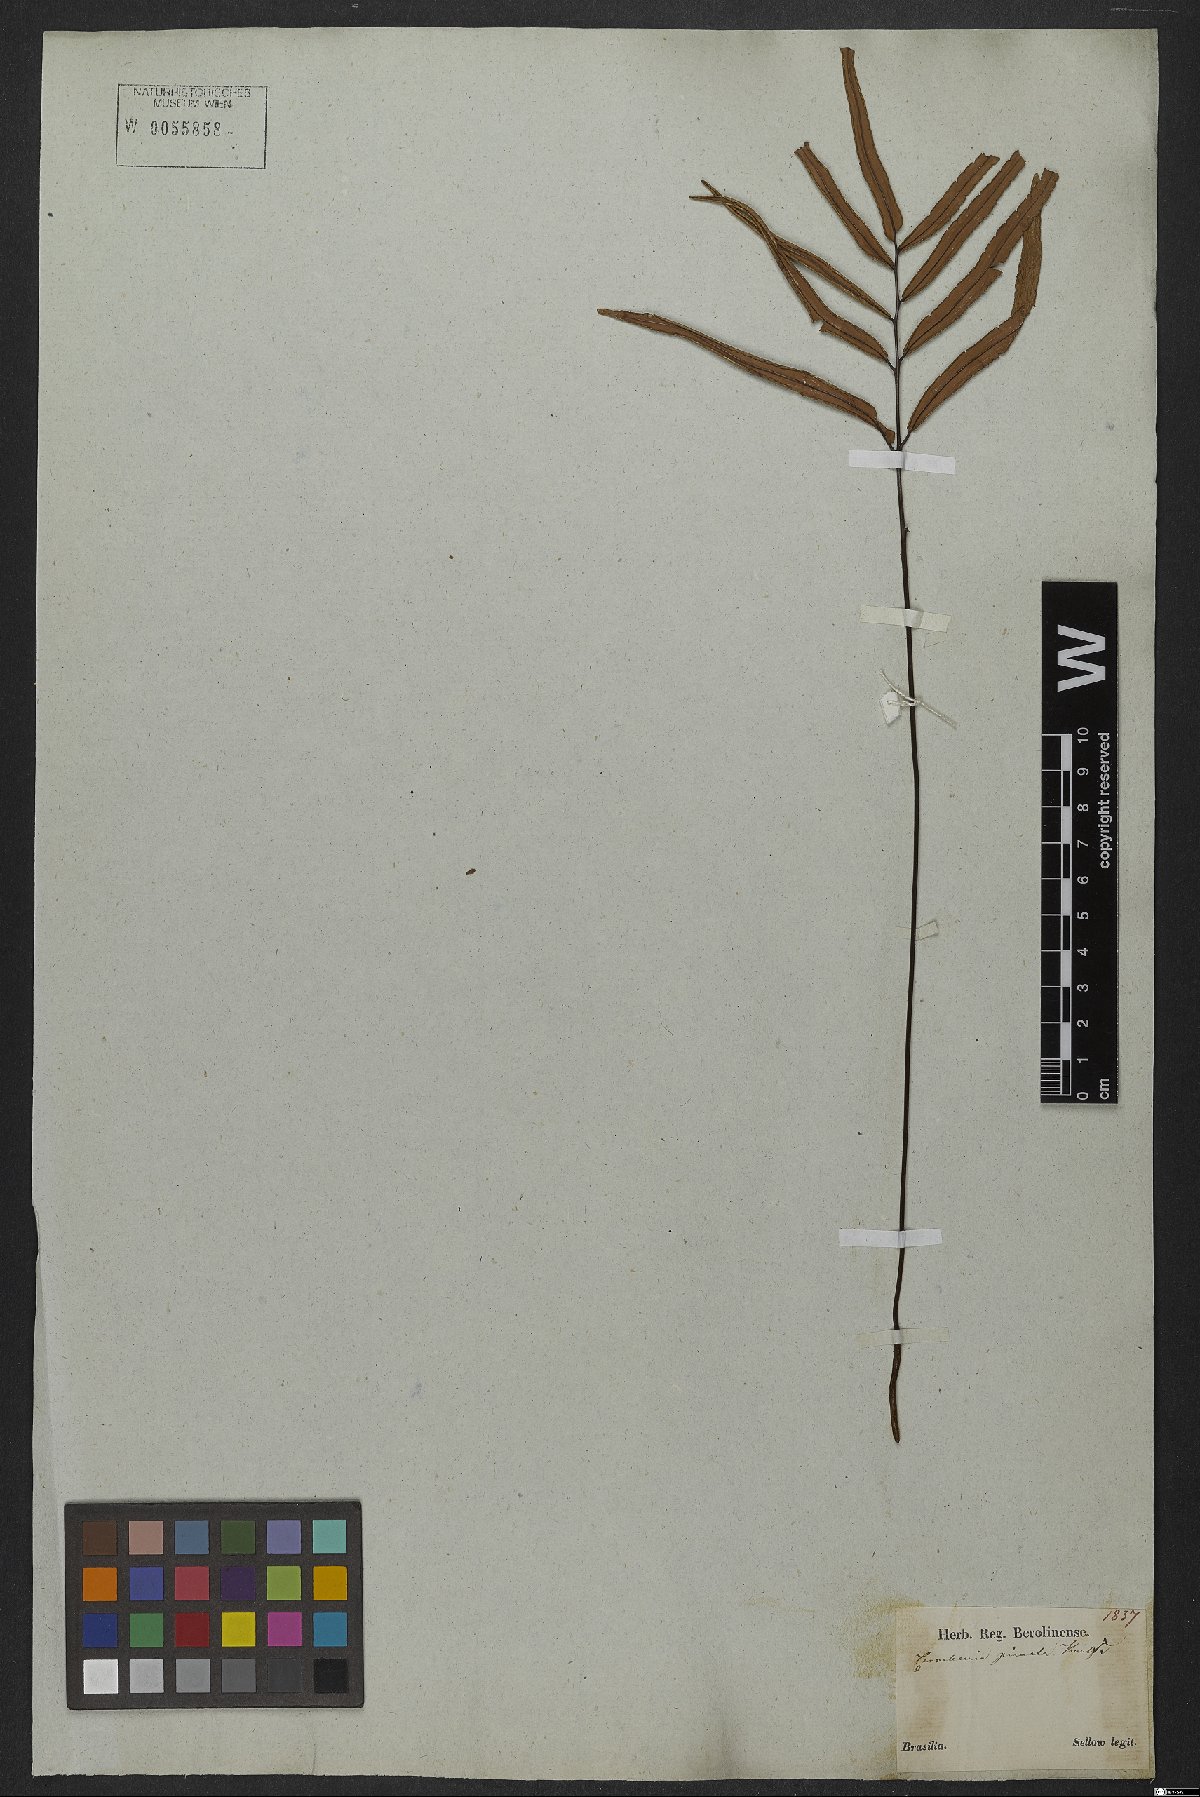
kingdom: Plantae
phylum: Tracheophyta
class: Polypodiopsida
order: Polypodiales
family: Pteridaceae
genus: Ormopteris
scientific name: Ormopteris pinnata
